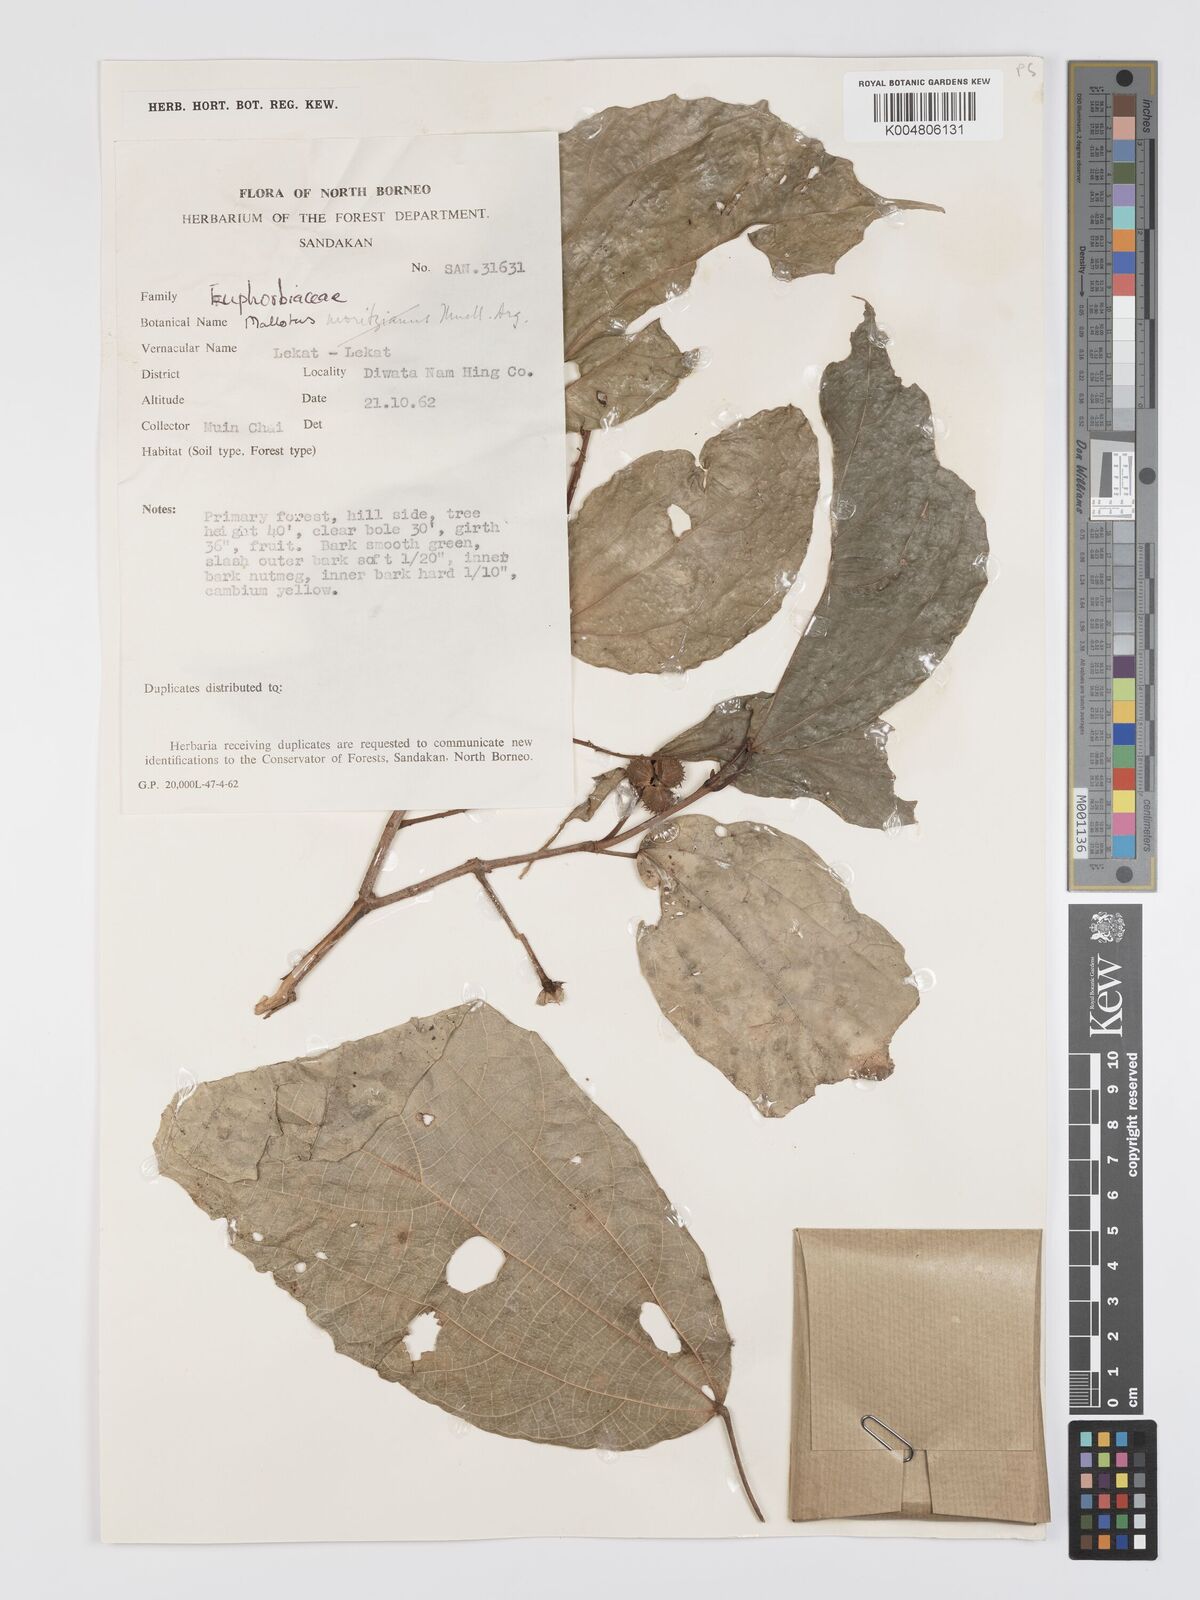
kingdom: Plantae
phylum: Tracheophyta
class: Magnoliopsida
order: Malpighiales
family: Euphorbiaceae
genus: Mallotus
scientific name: Mallotus korthalsii
